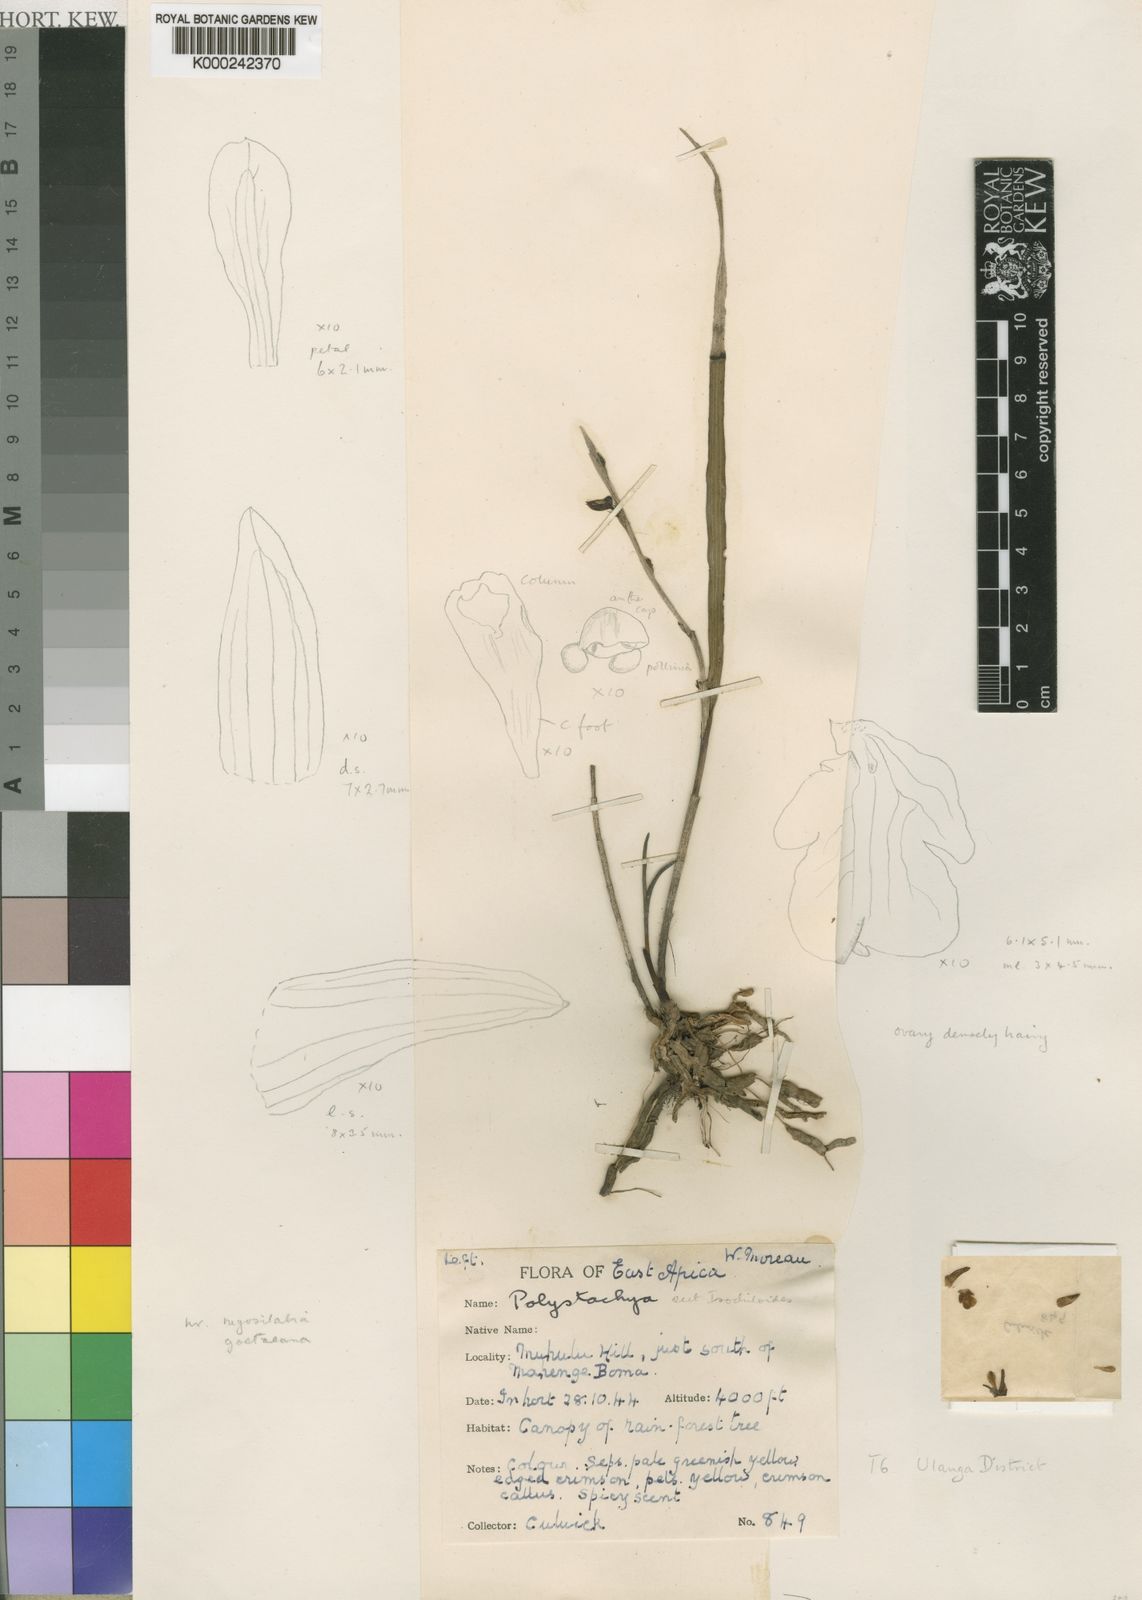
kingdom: Plantae
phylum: Tracheophyta
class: Liliopsida
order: Asparagales
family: Orchidaceae
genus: Polystachya
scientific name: Polystachya suaveolens
